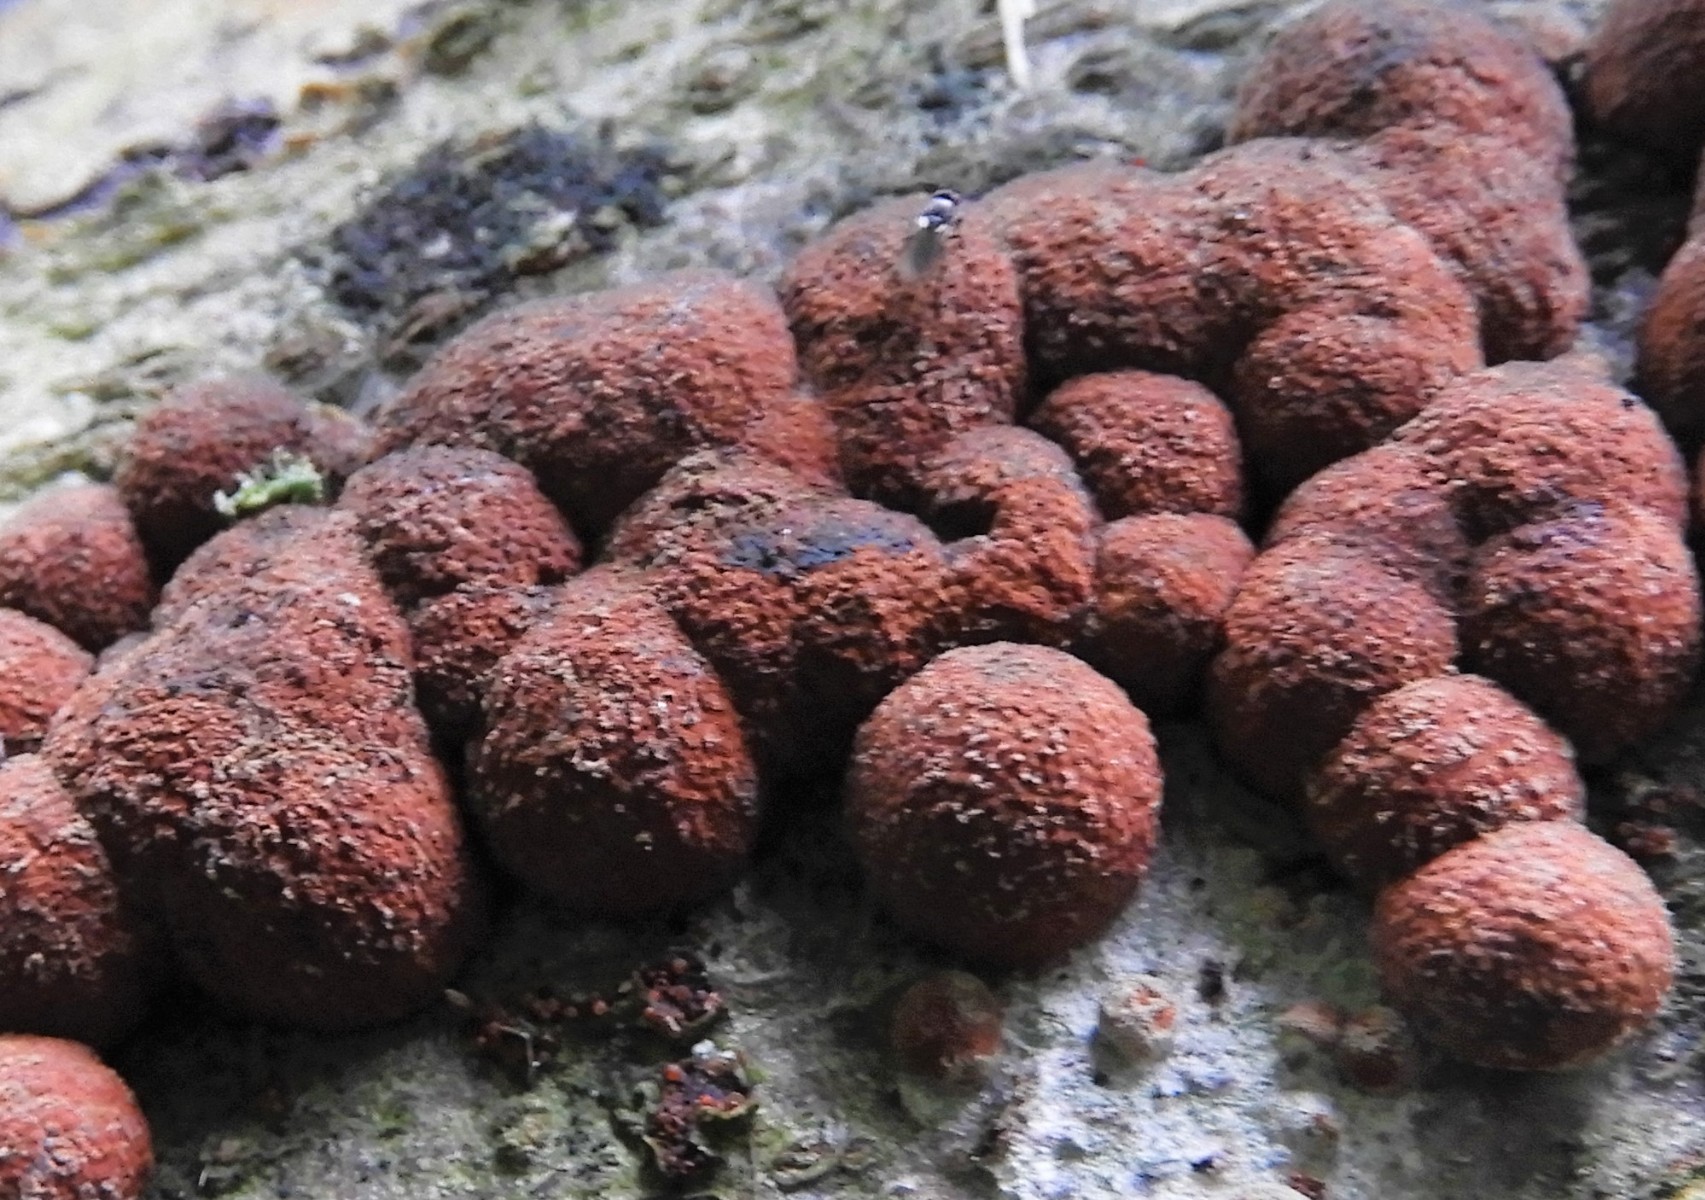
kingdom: Fungi
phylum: Ascomycota
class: Sordariomycetes
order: Xylariales
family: Hypoxylaceae
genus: Hypoxylon
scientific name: Hypoxylon fragiforme
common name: kuljordbær
